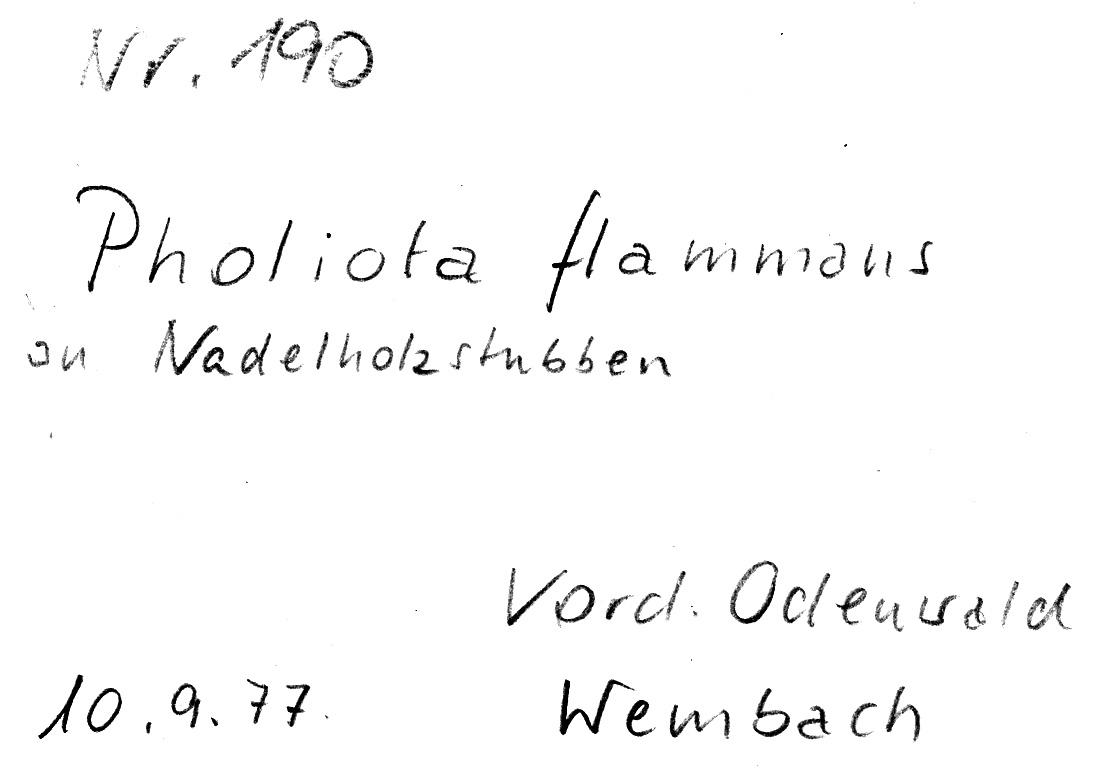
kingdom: Fungi
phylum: Basidiomycota
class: Agaricomycetes
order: Agaricales
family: Strophariaceae
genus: Pholiota
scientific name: Pholiota flammans
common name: Flaming scalycap
